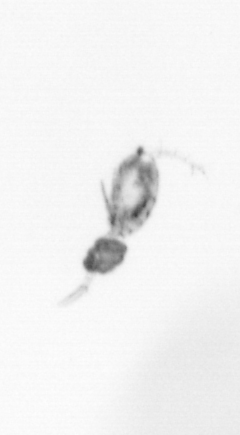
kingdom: Animalia
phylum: Arthropoda
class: Copepoda
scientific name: Copepoda
